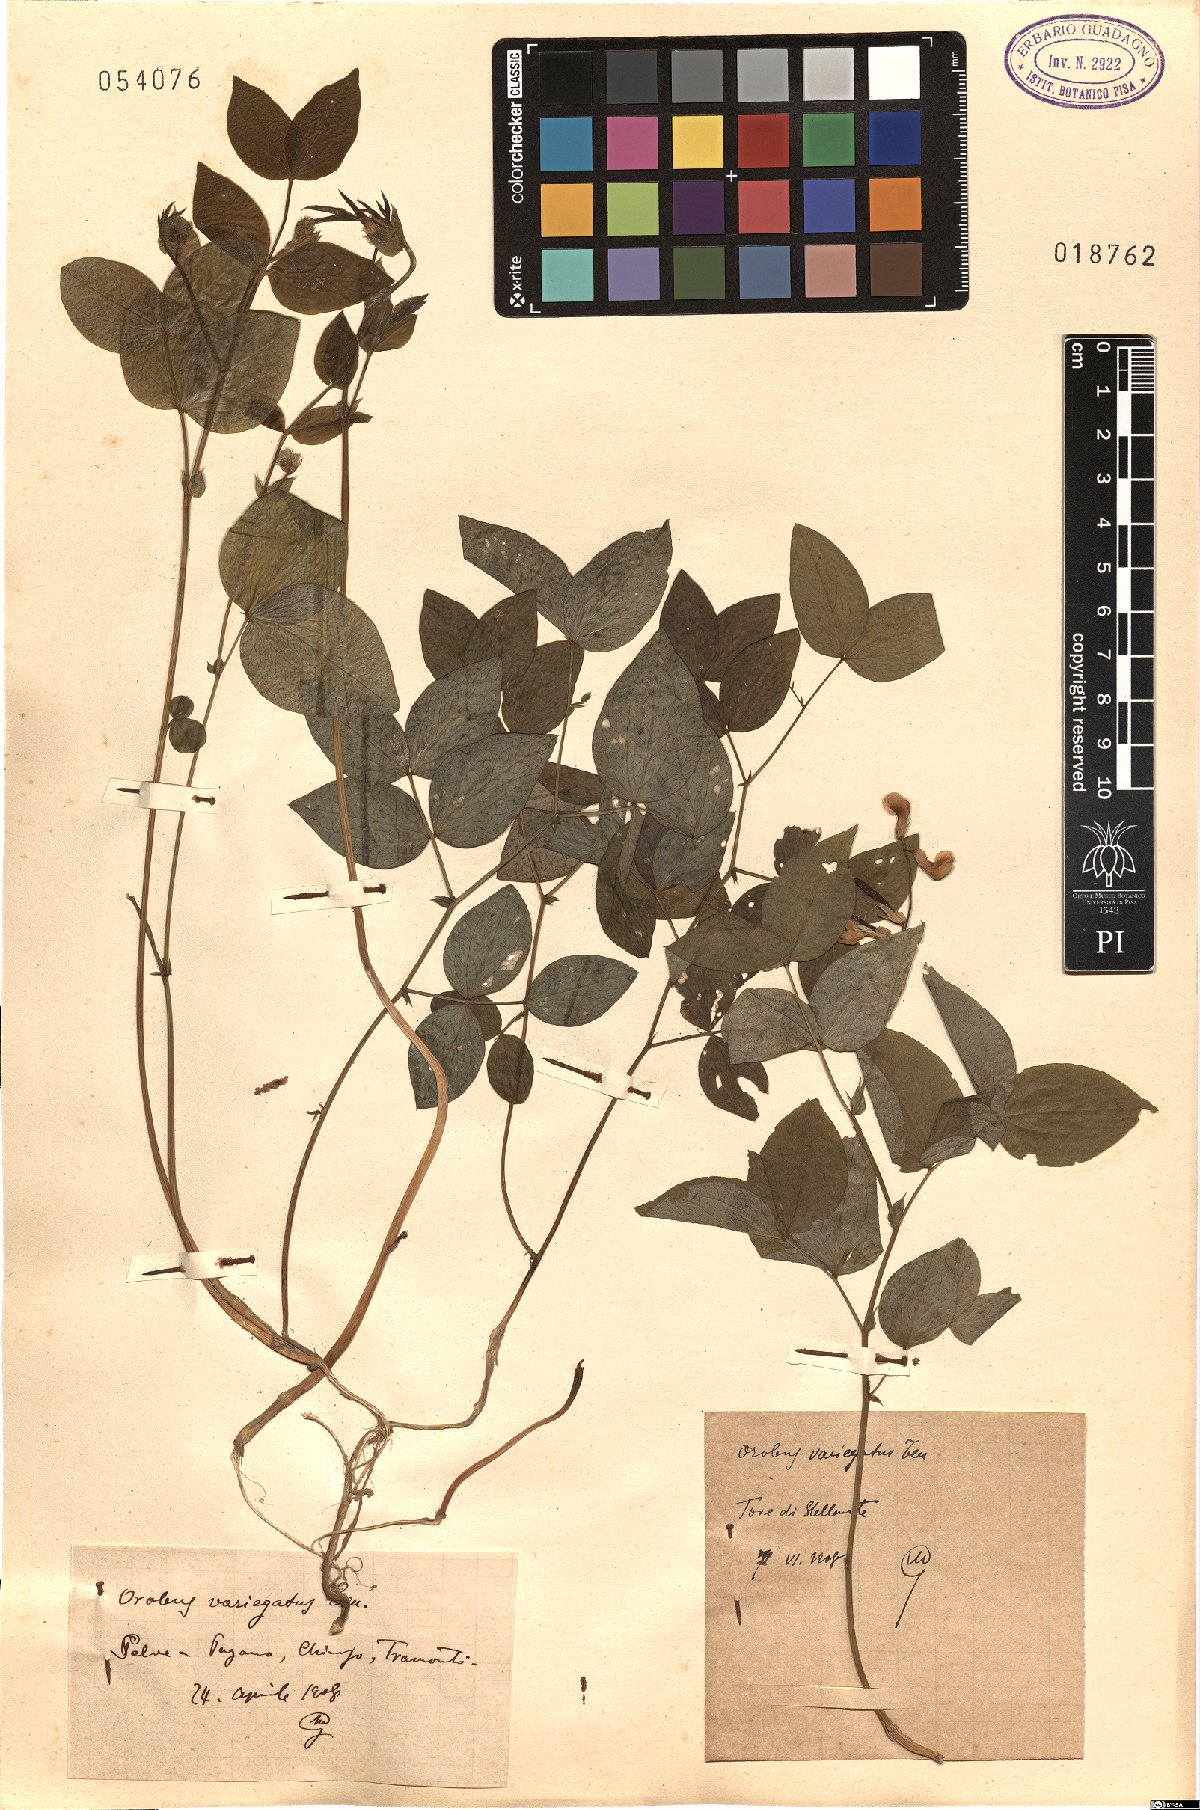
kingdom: Plantae
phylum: Tracheophyta
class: Magnoliopsida
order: Fabales
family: Fabaceae
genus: Lathyrus
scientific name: Lathyrus venetus
